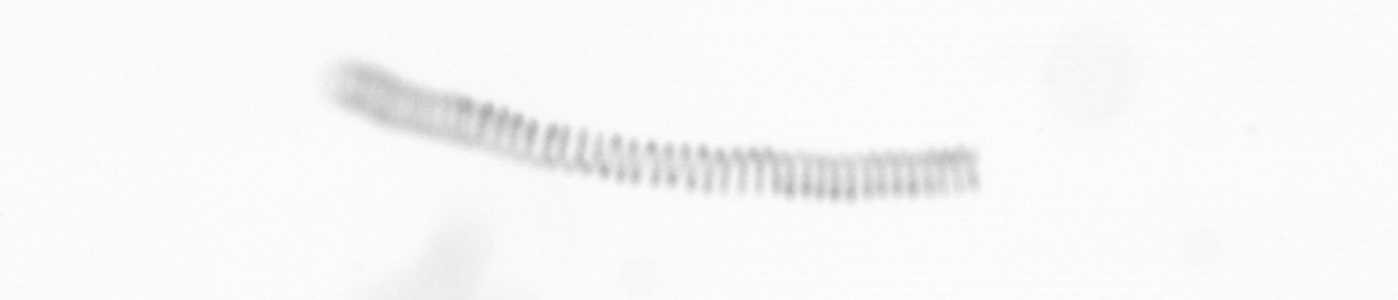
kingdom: Chromista
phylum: Ochrophyta
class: Bacillariophyceae
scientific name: Bacillariophyceae
